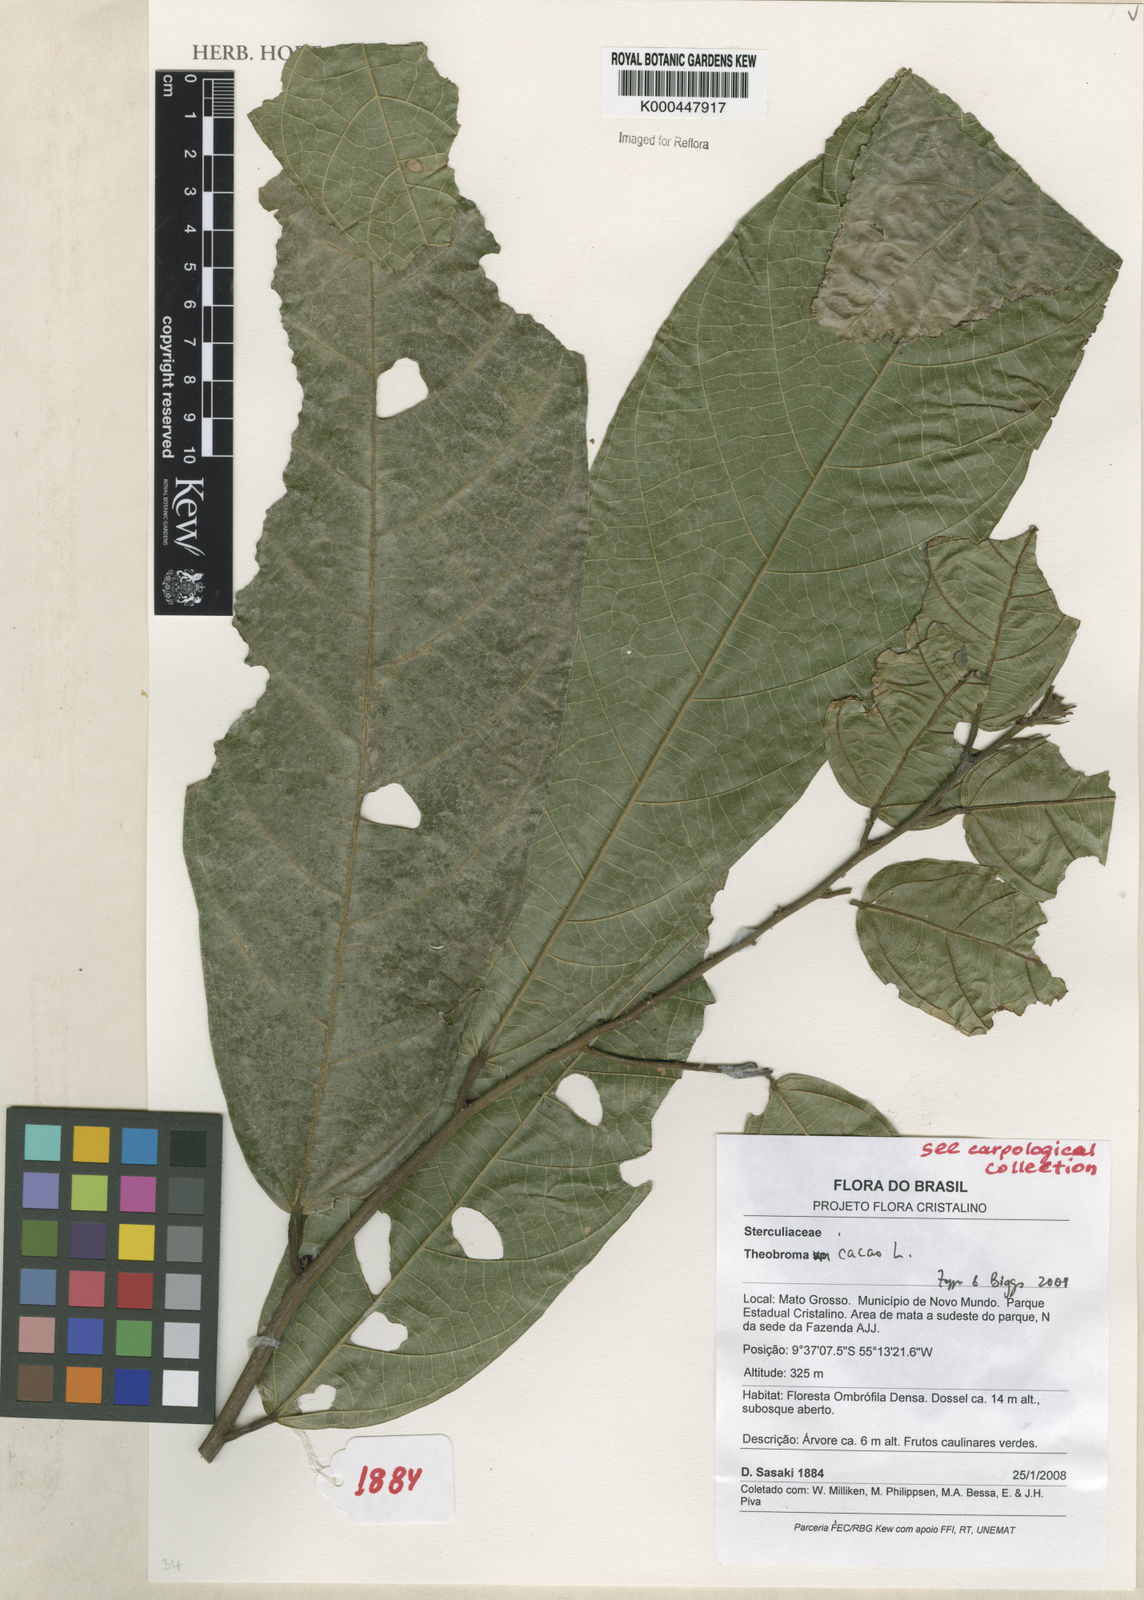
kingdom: Plantae
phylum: Tracheophyta
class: Magnoliopsida
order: Malvales
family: Malvaceae
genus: Theobroma
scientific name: Theobroma cacao
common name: Cocoa
